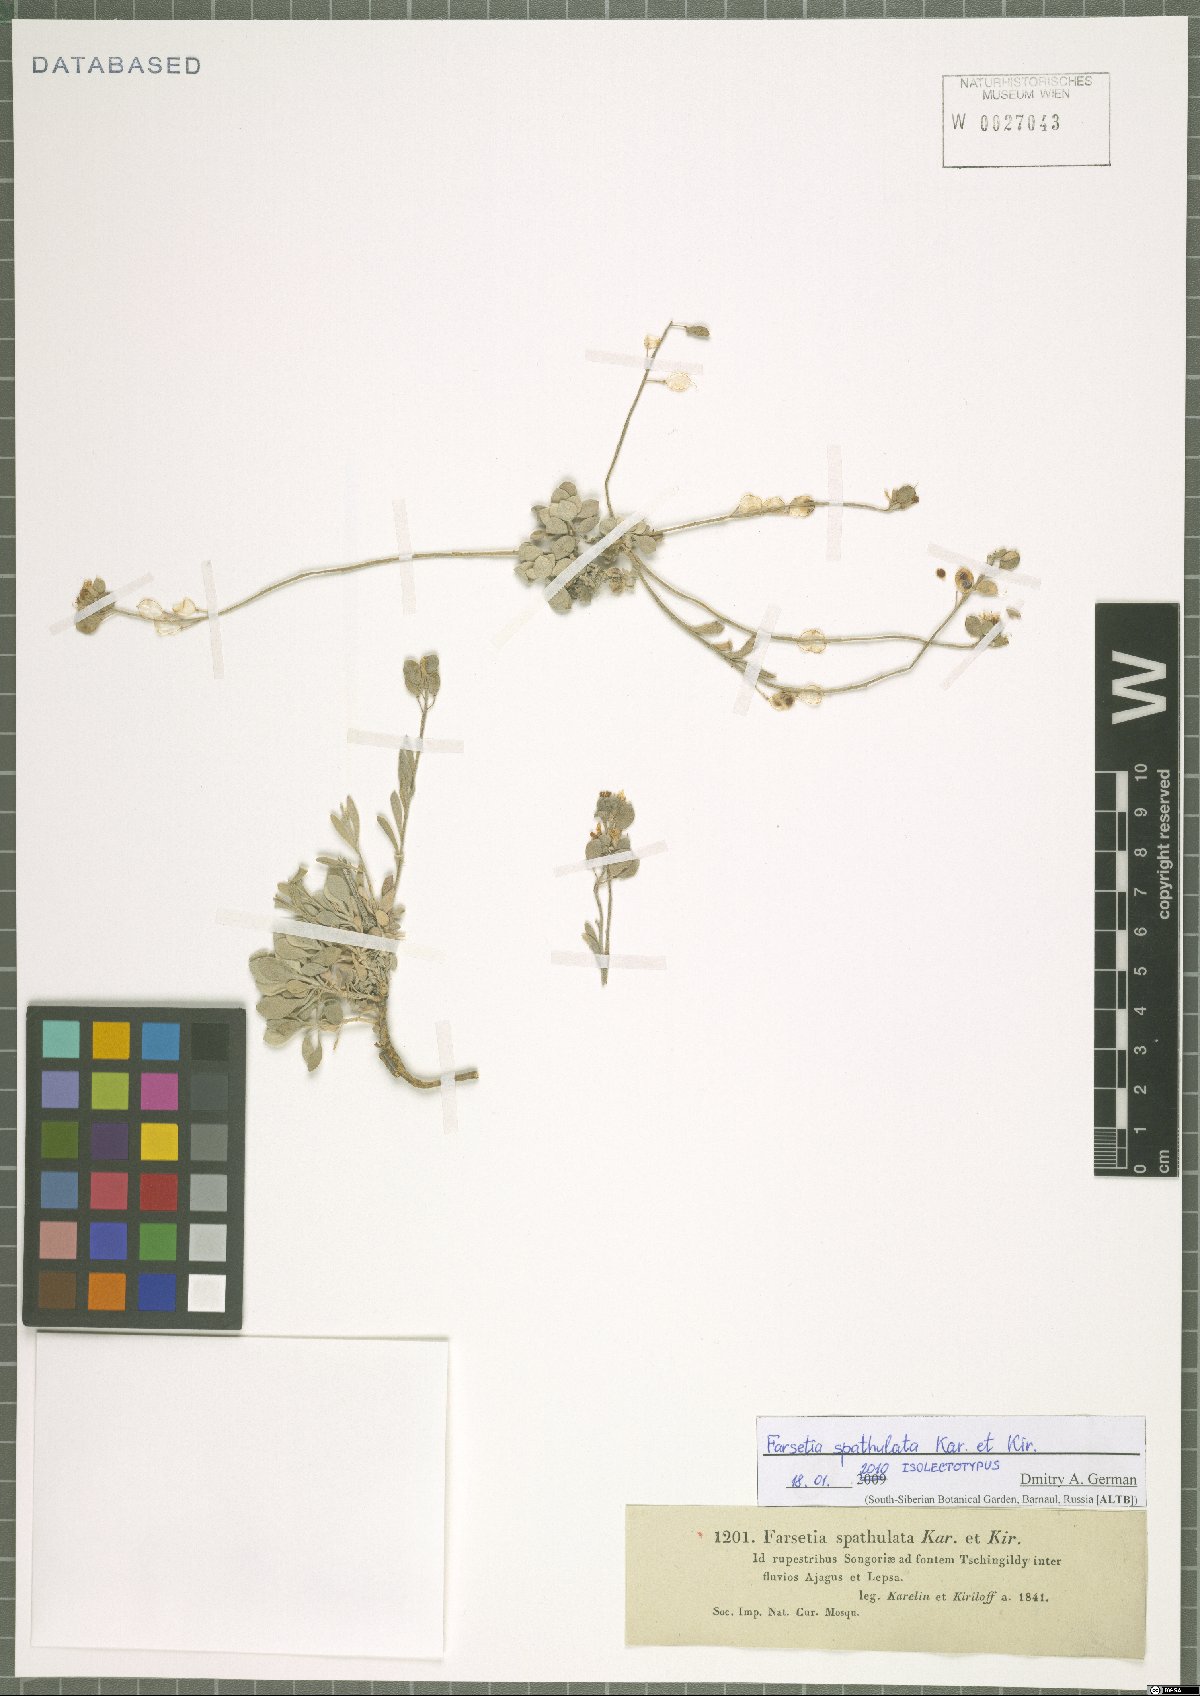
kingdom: Plantae
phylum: Tracheophyta
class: Magnoliopsida
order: Brassicales
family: Brassicaceae
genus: Pterygostemon
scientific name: Pterygostemon spathulatus
